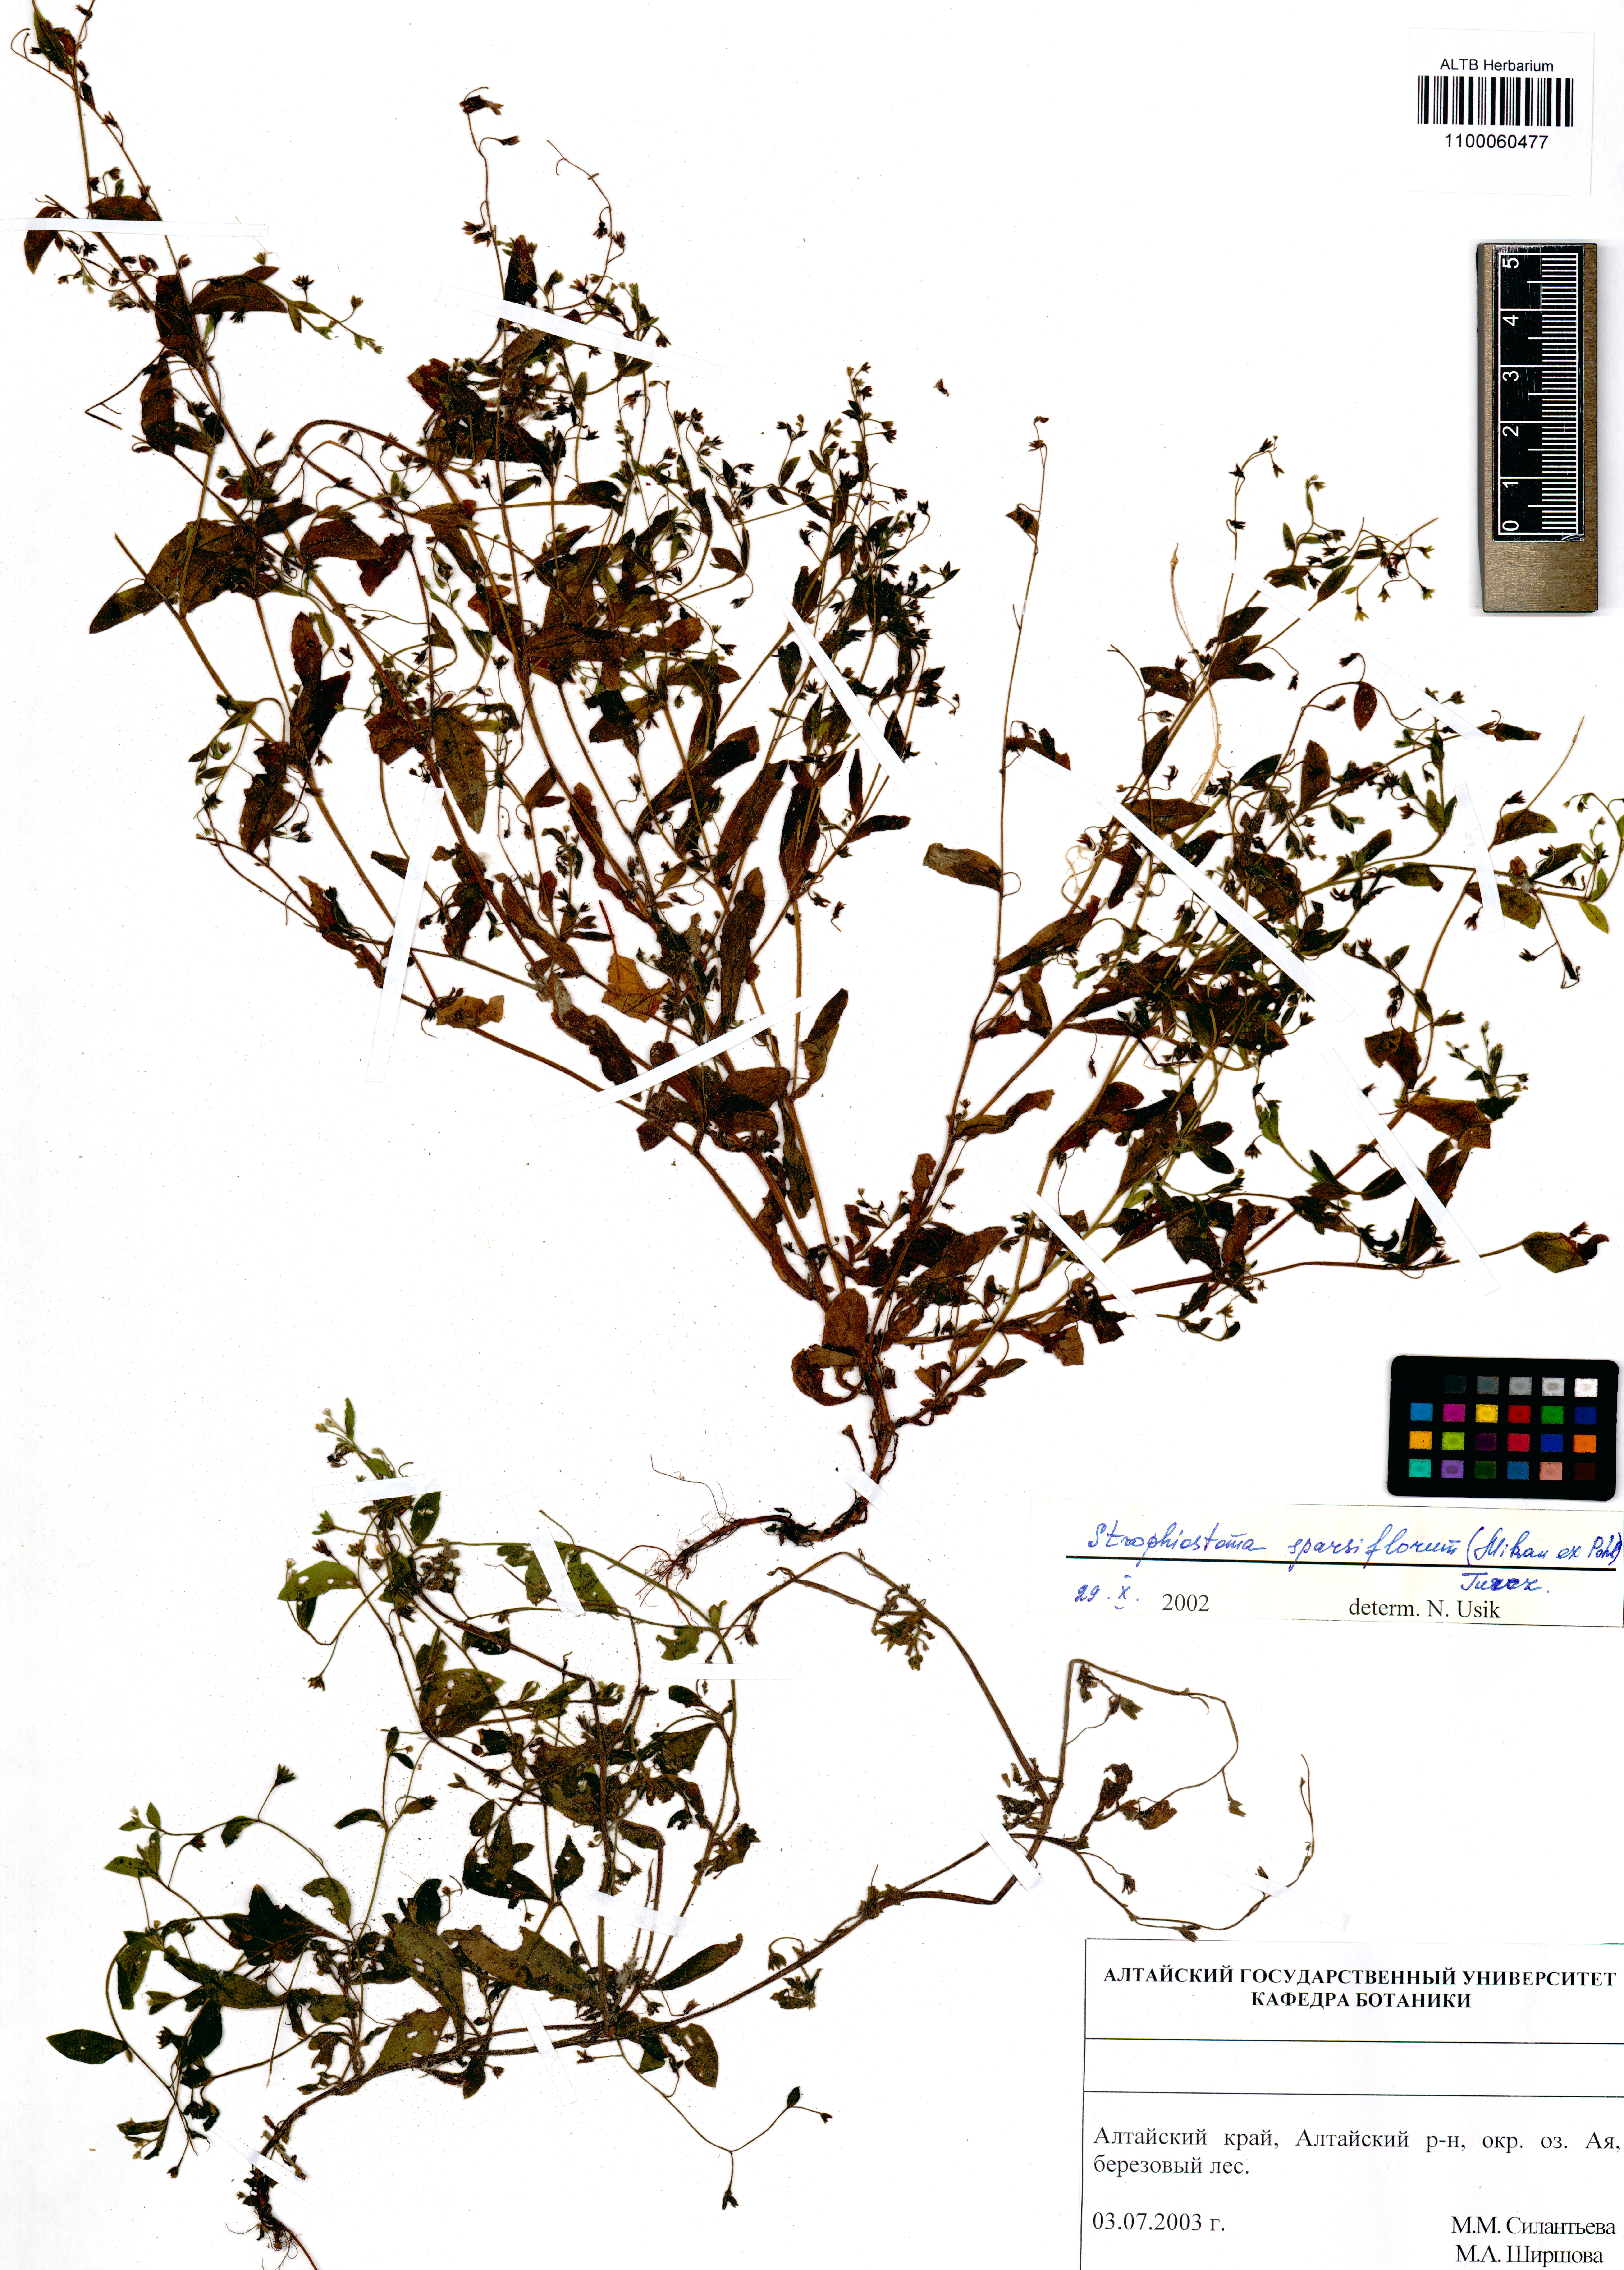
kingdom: Plantae
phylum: Tracheophyta
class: Magnoliopsida
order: Boraginales
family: Boraginaceae
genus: Myosotis
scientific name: Myosotis sparsiflora
